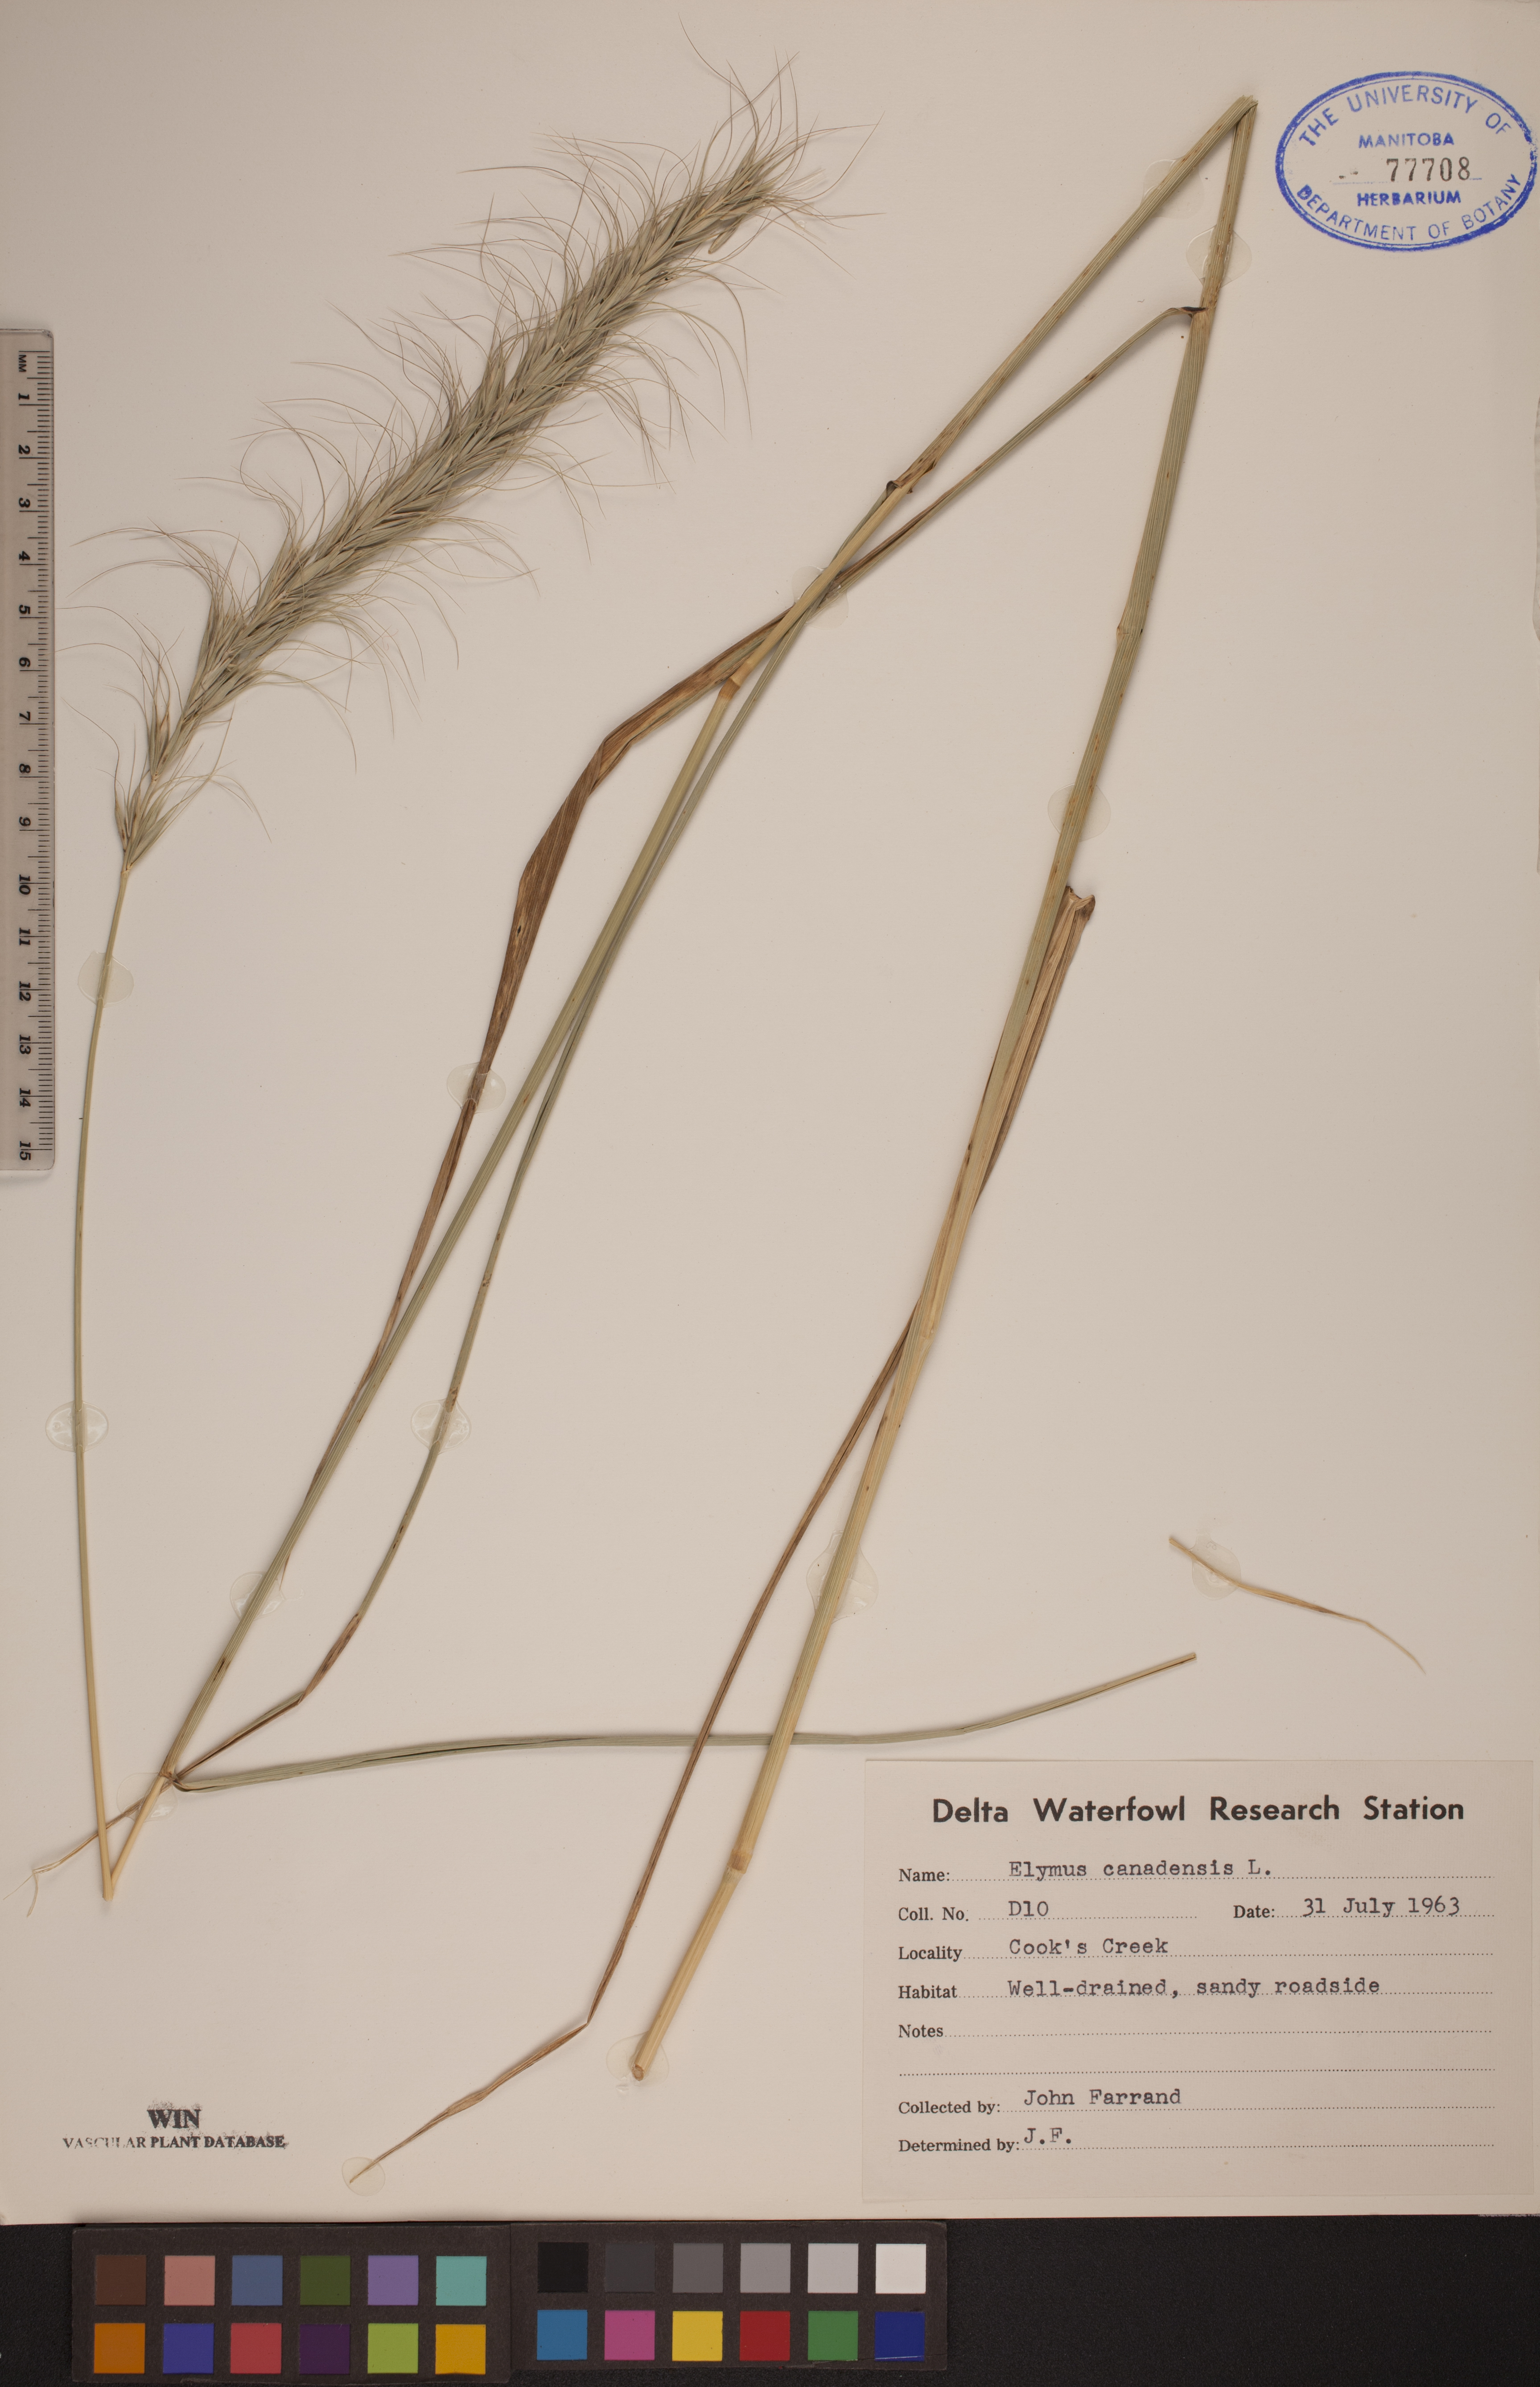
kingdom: Plantae
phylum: Tracheophyta
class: Liliopsida
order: Poales
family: Poaceae
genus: Elymus
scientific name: Elymus canadensis
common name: Canada wild rye
